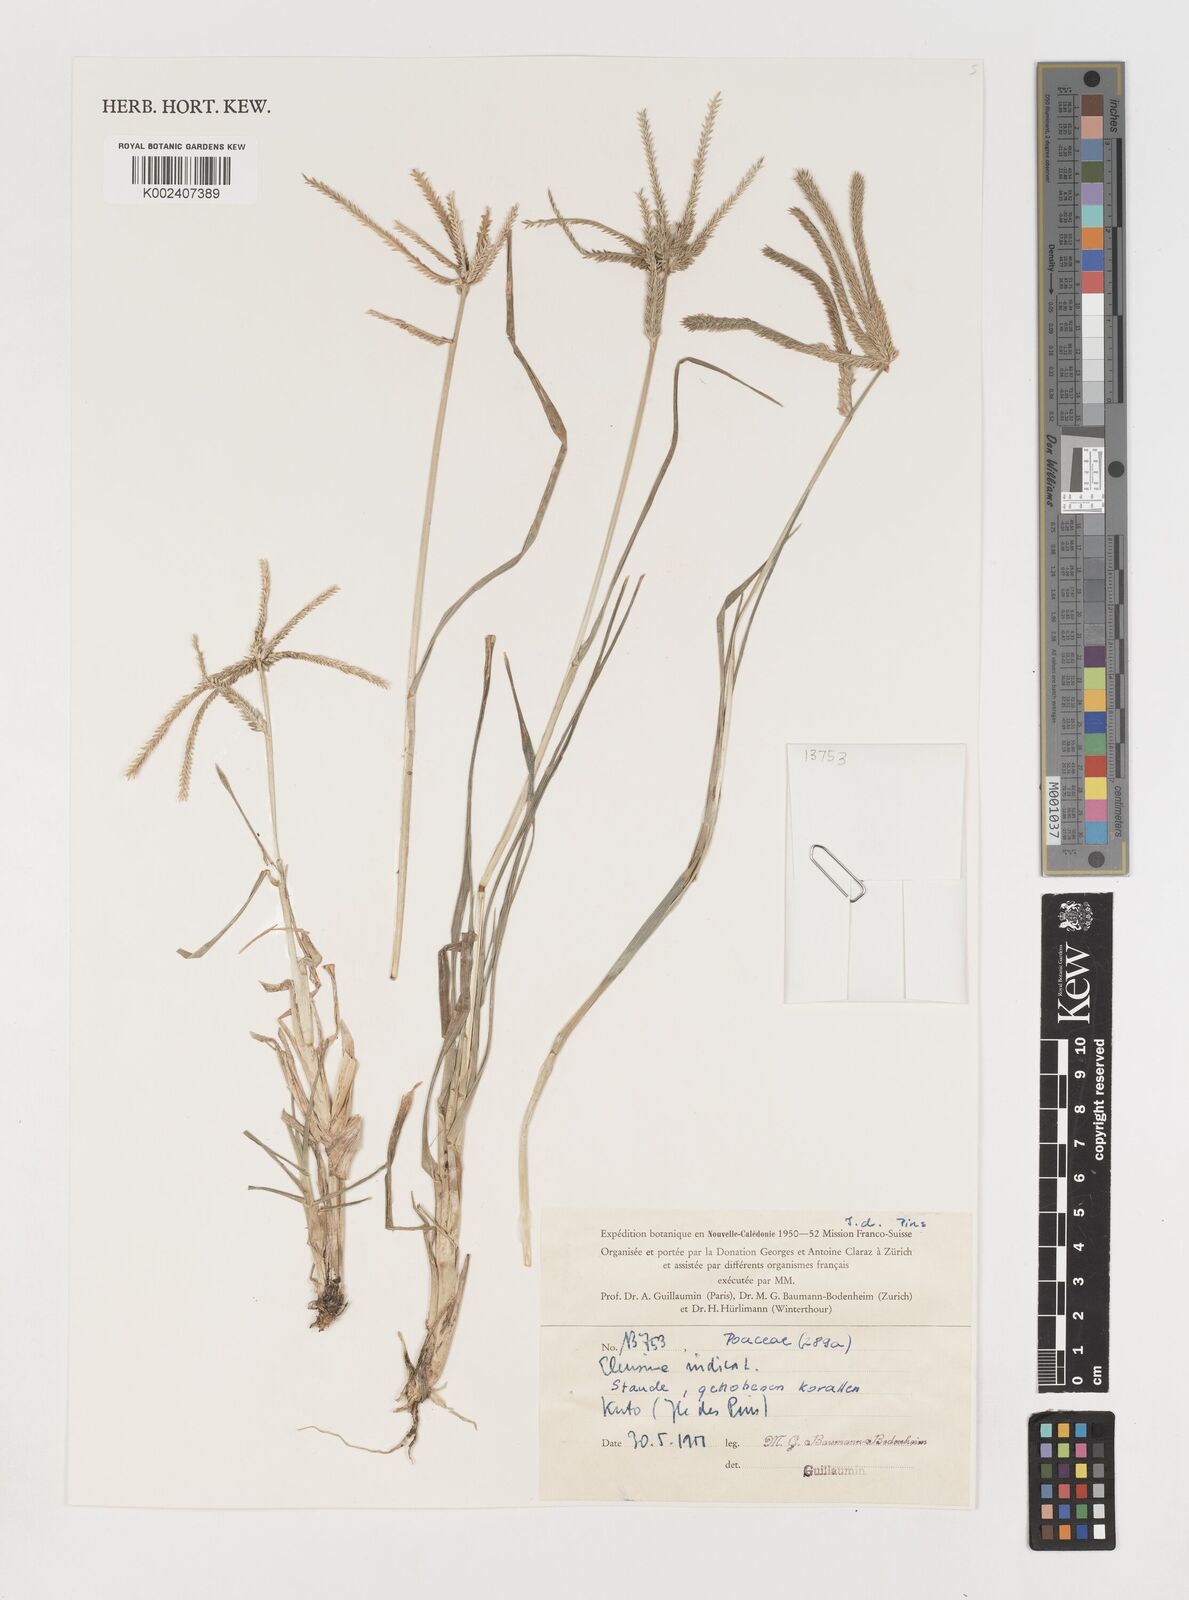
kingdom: Plantae
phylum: Tracheophyta
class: Liliopsida
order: Poales
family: Poaceae
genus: Eleusine
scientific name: Eleusine indica
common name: Yard-grass
